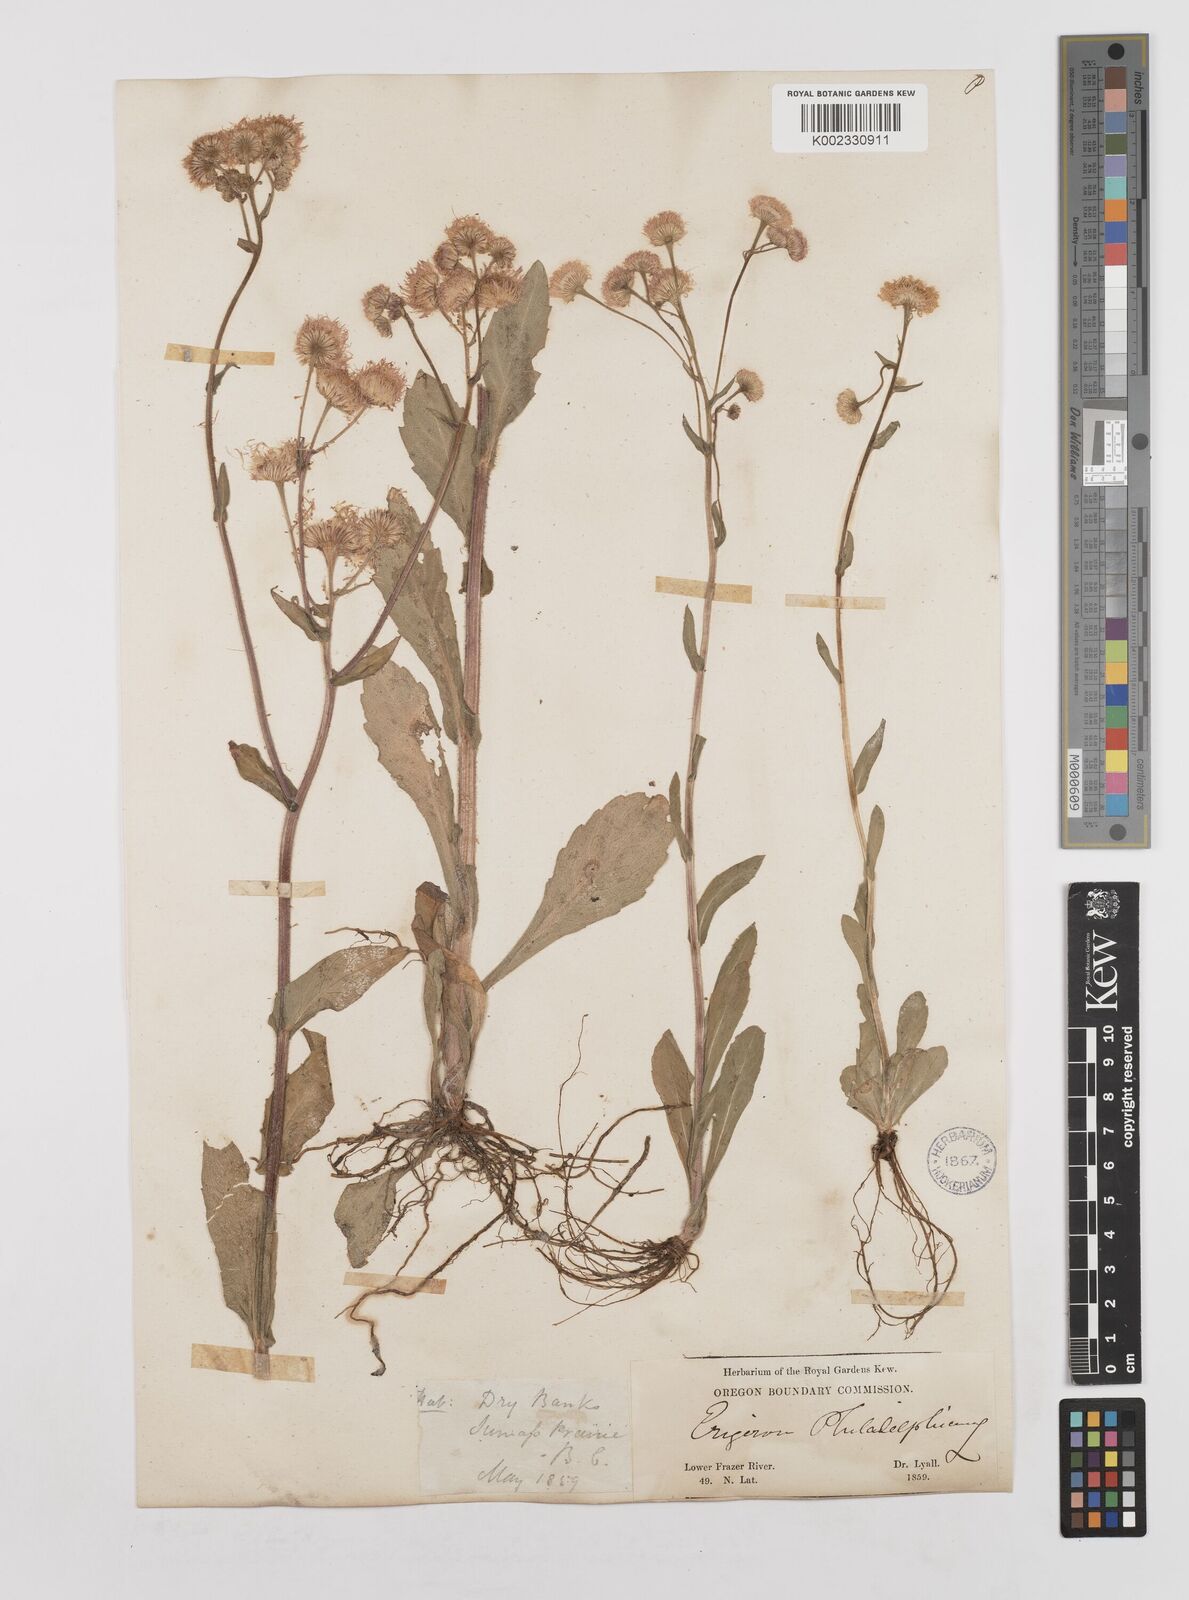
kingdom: Plantae
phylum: Tracheophyta
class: Magnoliopsida
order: Asterales
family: Asteraceae
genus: Erigeron
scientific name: Erigeron philadelphicus
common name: Robin's-plantain
